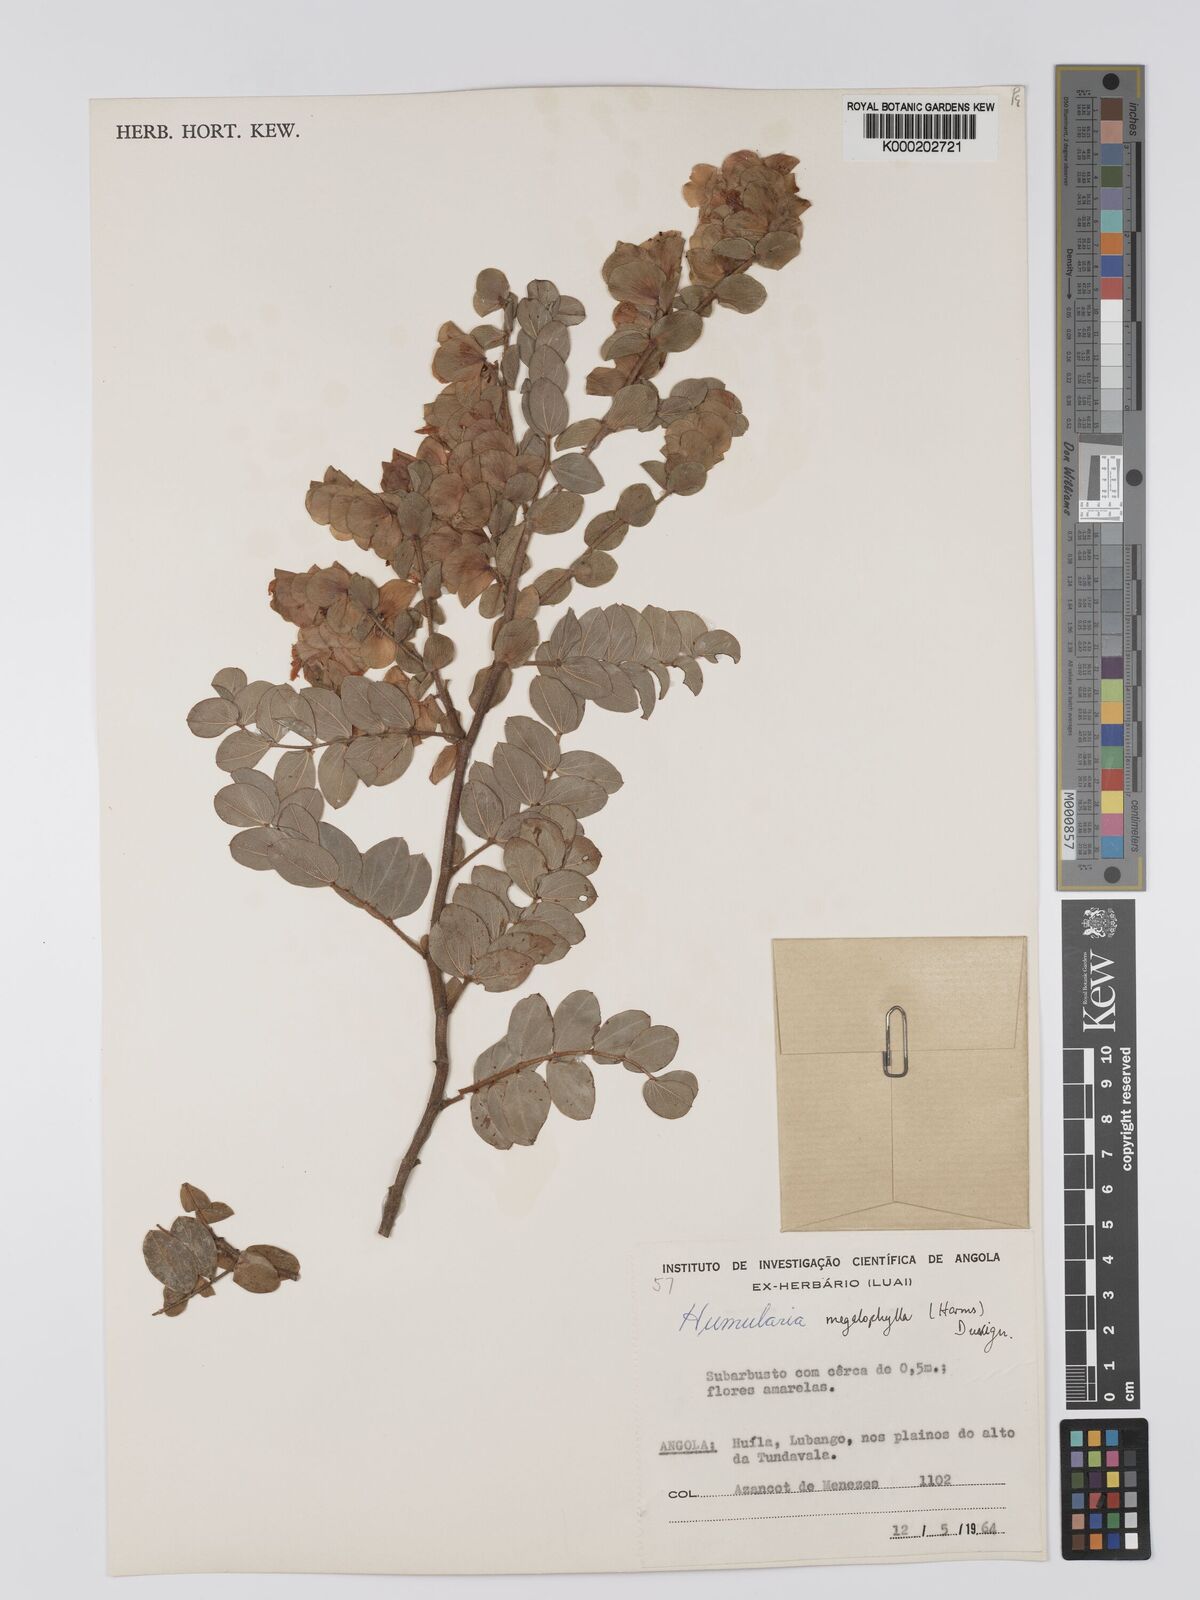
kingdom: Plantae
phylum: Tracheophyta
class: Magnoliopsida
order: Fabales
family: Fabaceae
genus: Humularia
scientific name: Humularia welwitschii
